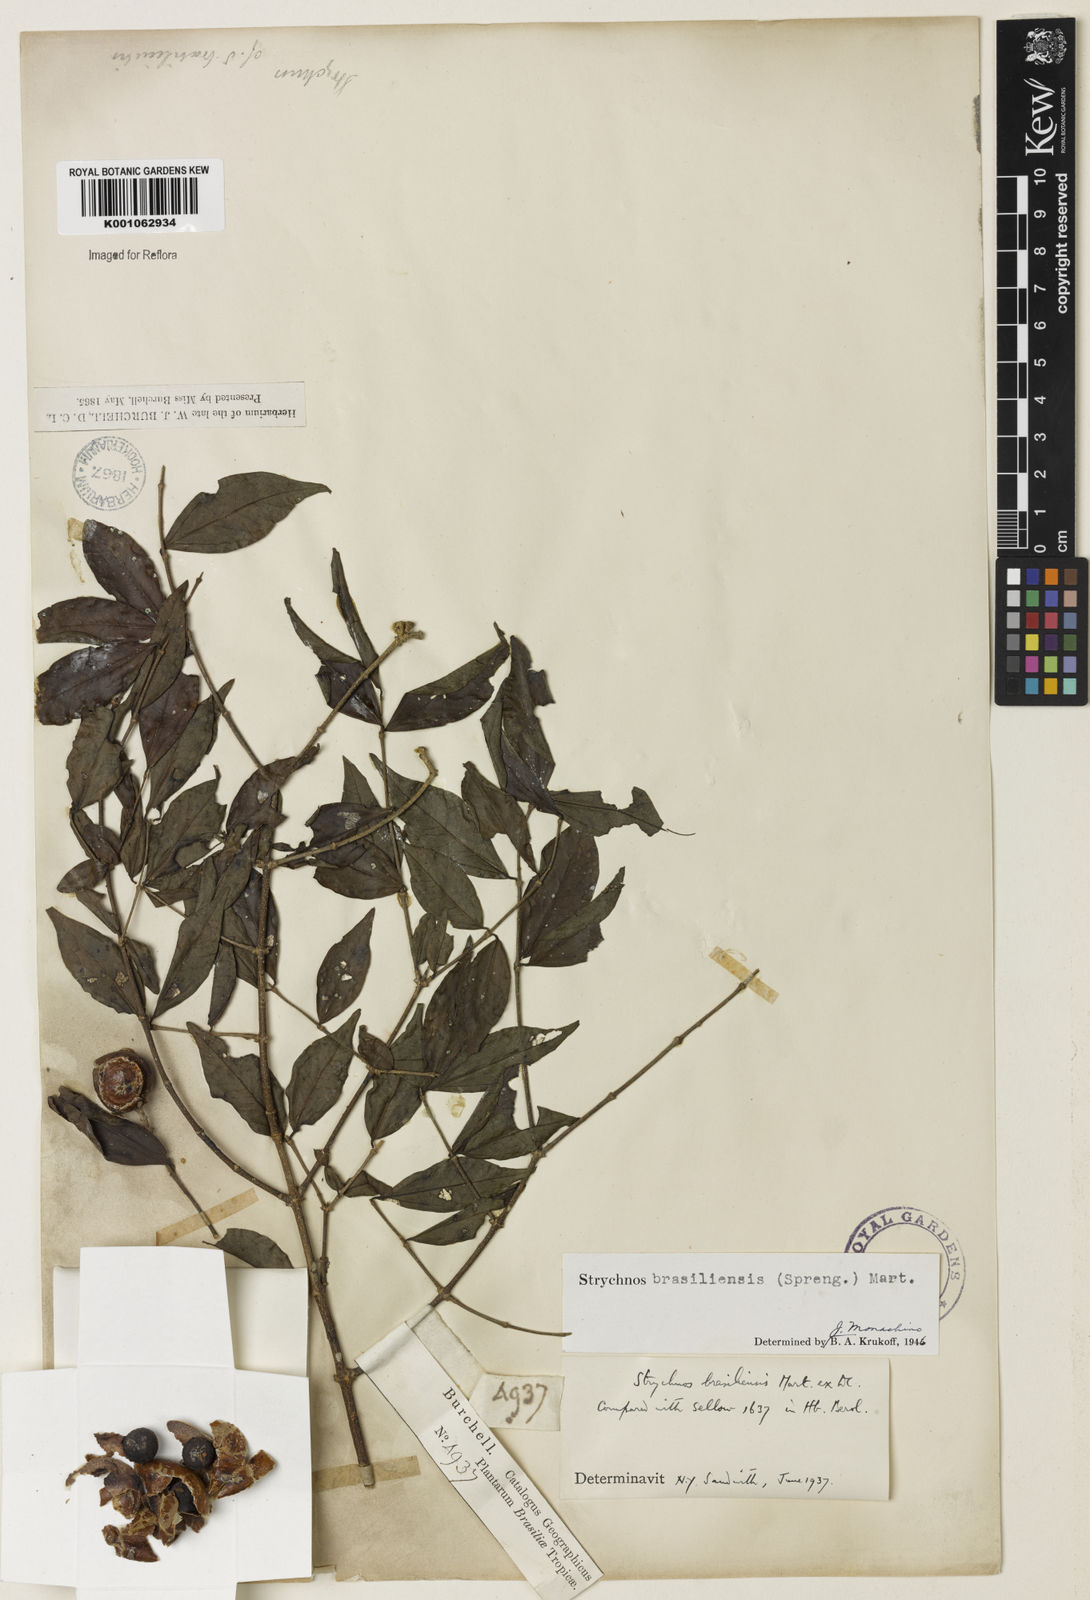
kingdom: Plantae
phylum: Tracheophyta
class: Magnoliopsida
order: Gentianales
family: Loganiaceae
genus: Strychnos
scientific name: Strychnos brasiliensis
